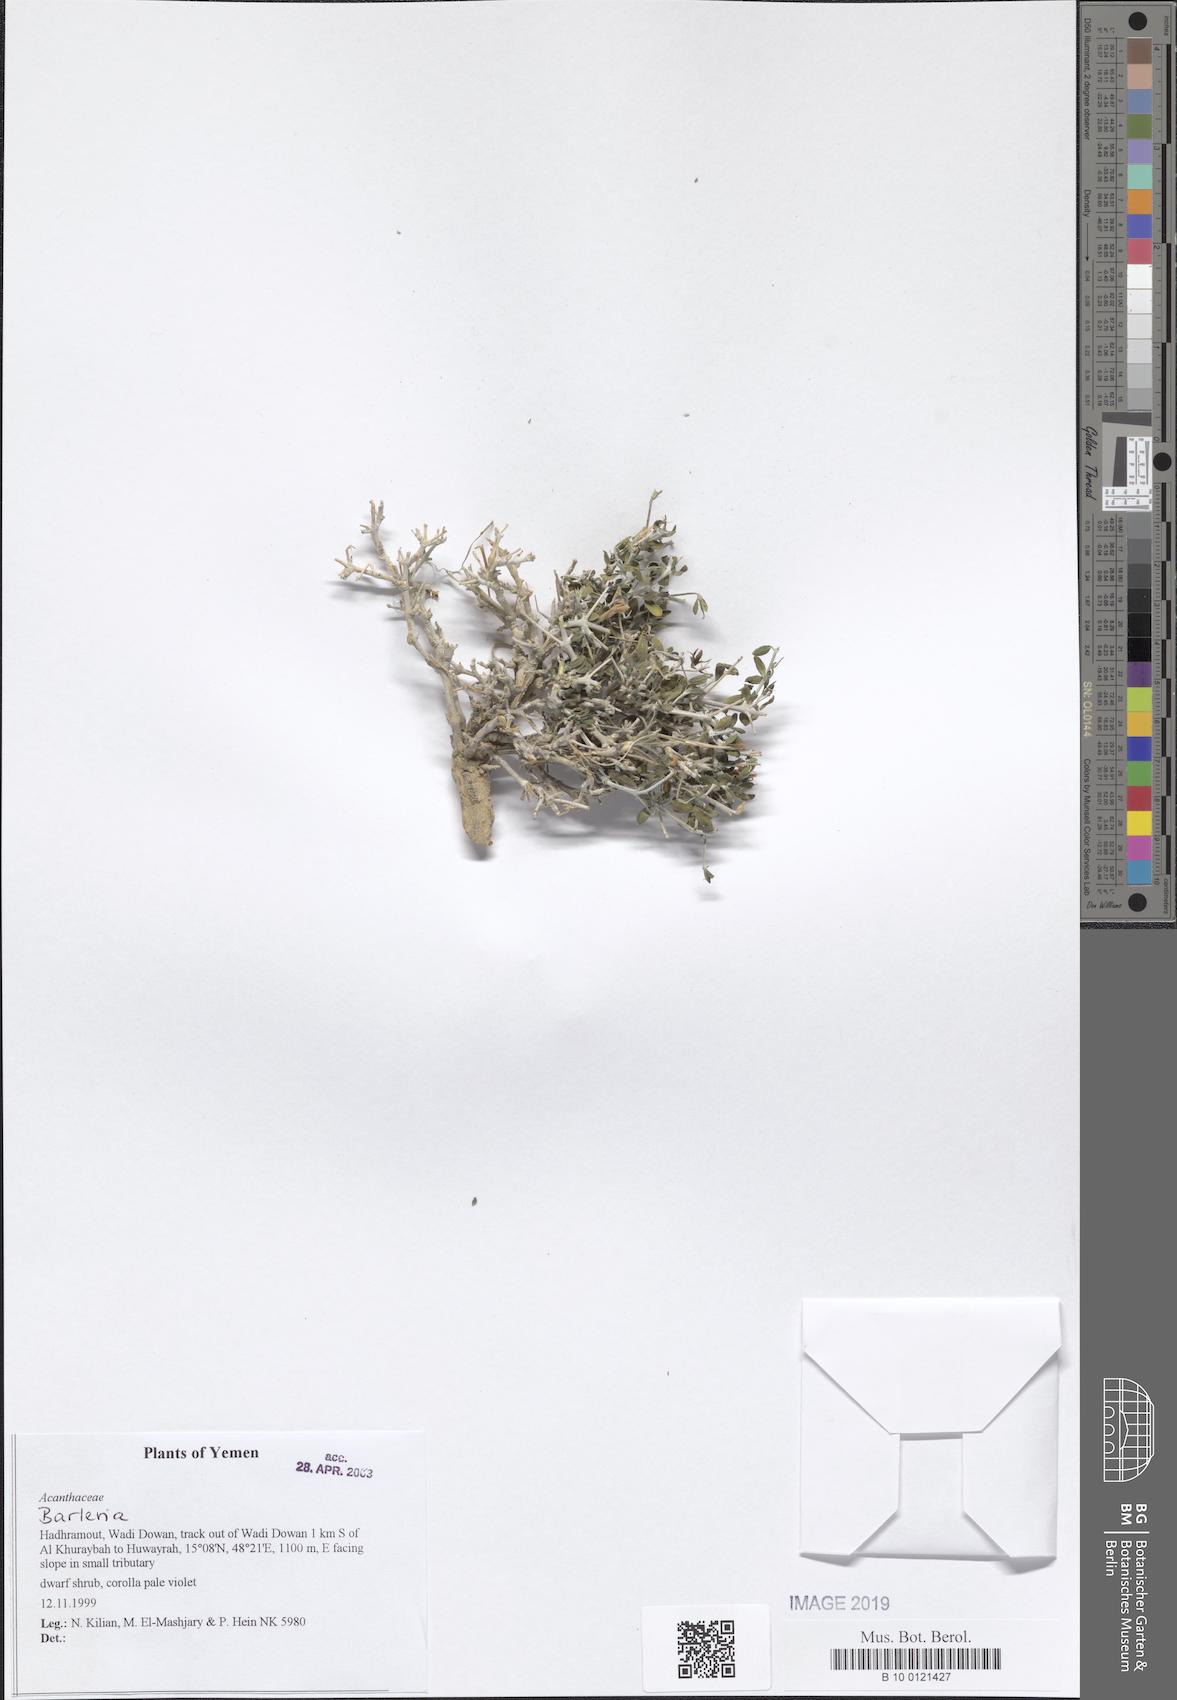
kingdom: Plantae
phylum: Tracheophyta
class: Magnoliopsida
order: Lamiales
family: Acanthaceae
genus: Barleria
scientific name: Barleria
